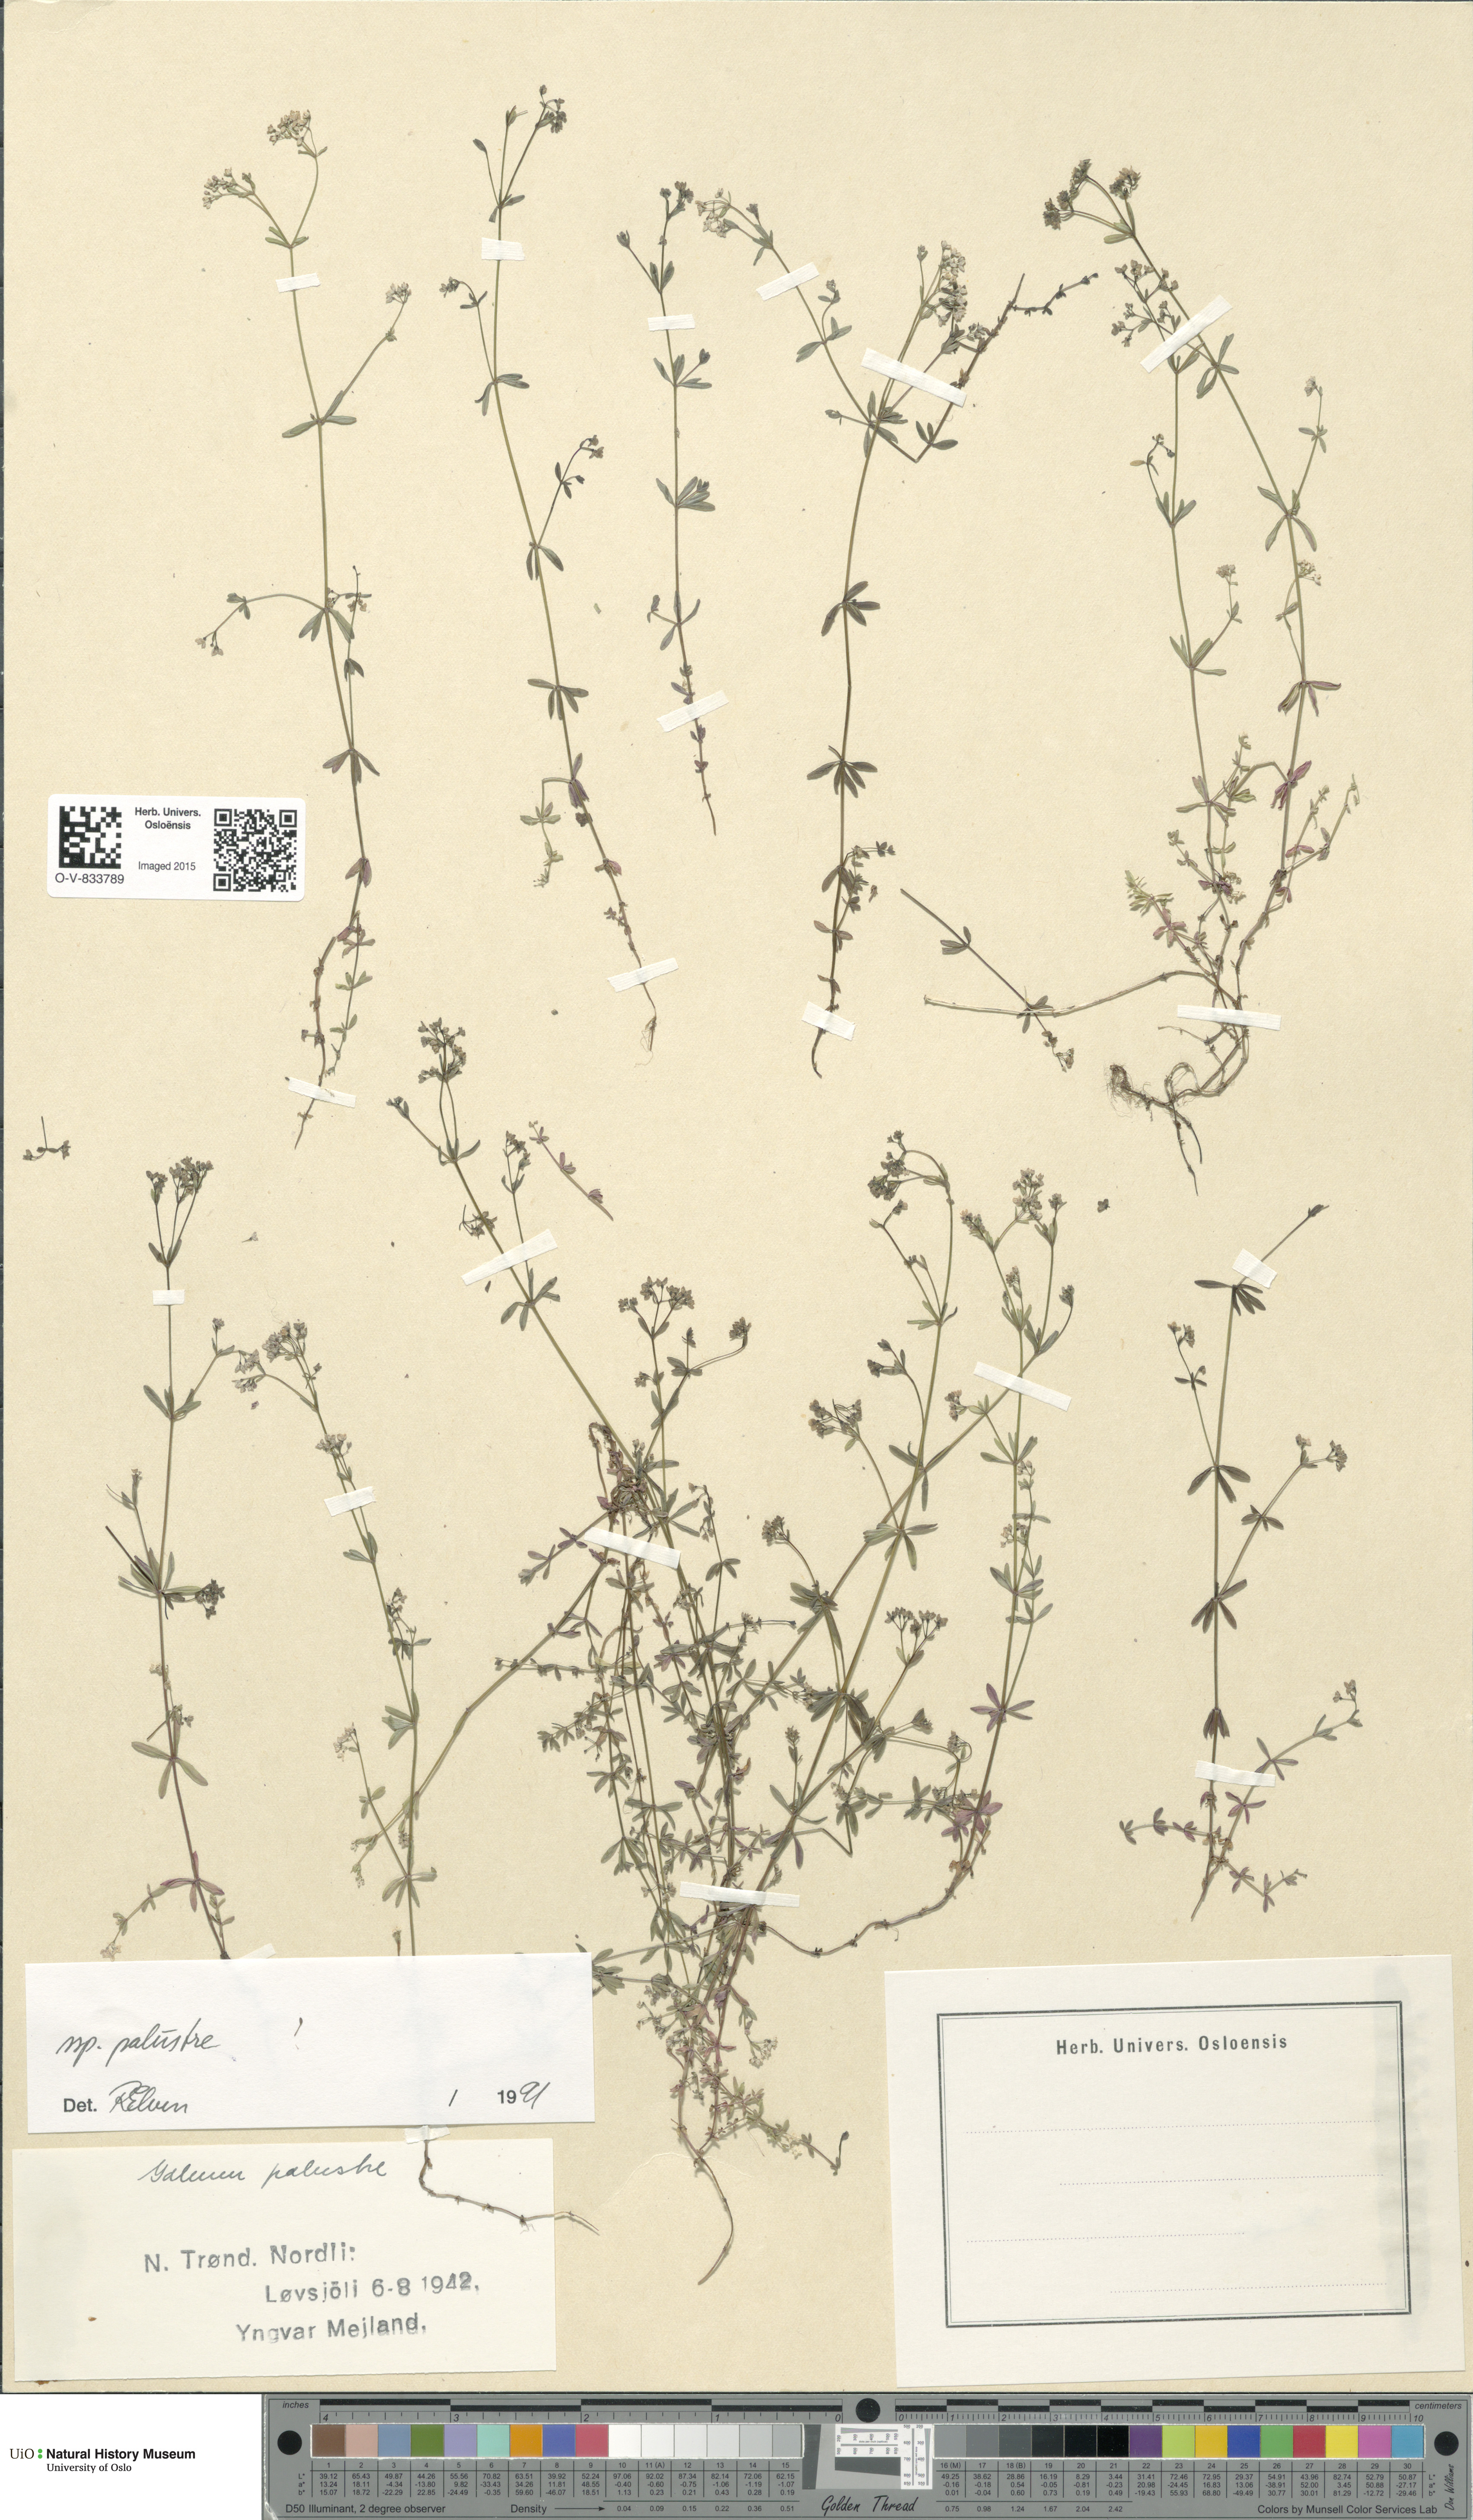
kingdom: Plantae
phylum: Tracheophyta
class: Magnoliopsida
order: Gentianales
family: Rubiaceae
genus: Galium
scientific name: Galium palustre
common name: Common marsh-bedstraw
